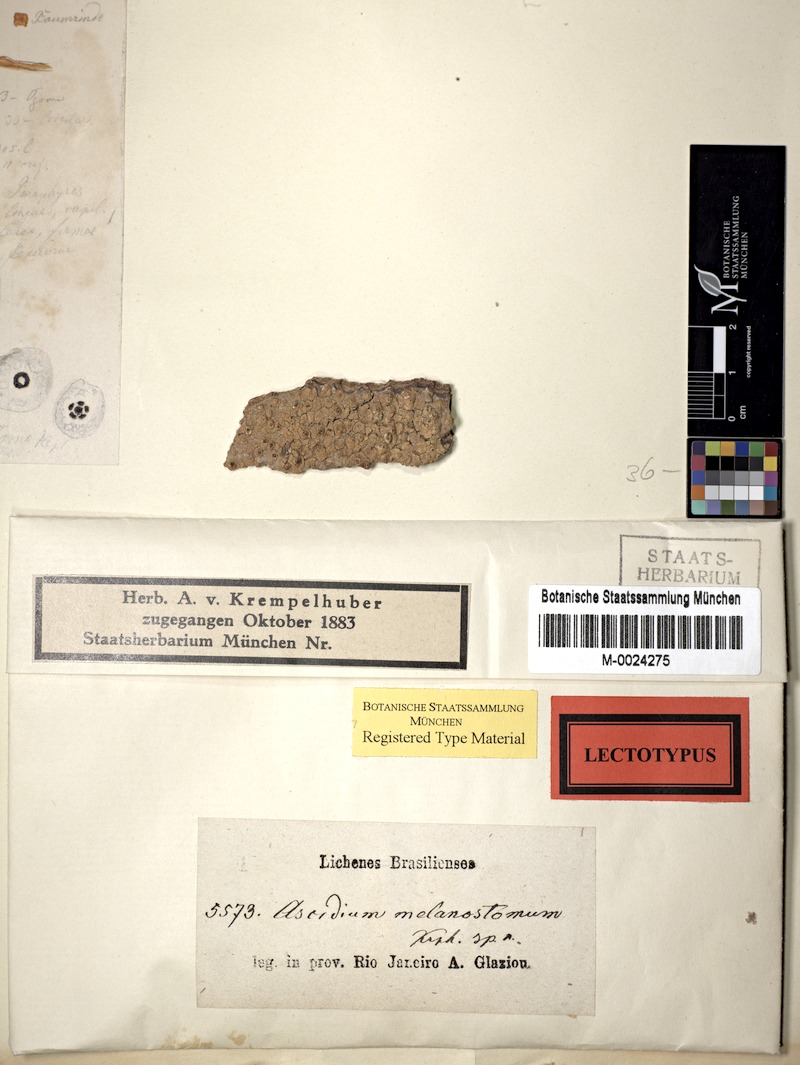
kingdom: Fungi
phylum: Ascomycota
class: Lecanoromycetes
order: Ostropales
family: Graphidaceae
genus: Ocellularia
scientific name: Ocellularia melanostoma
